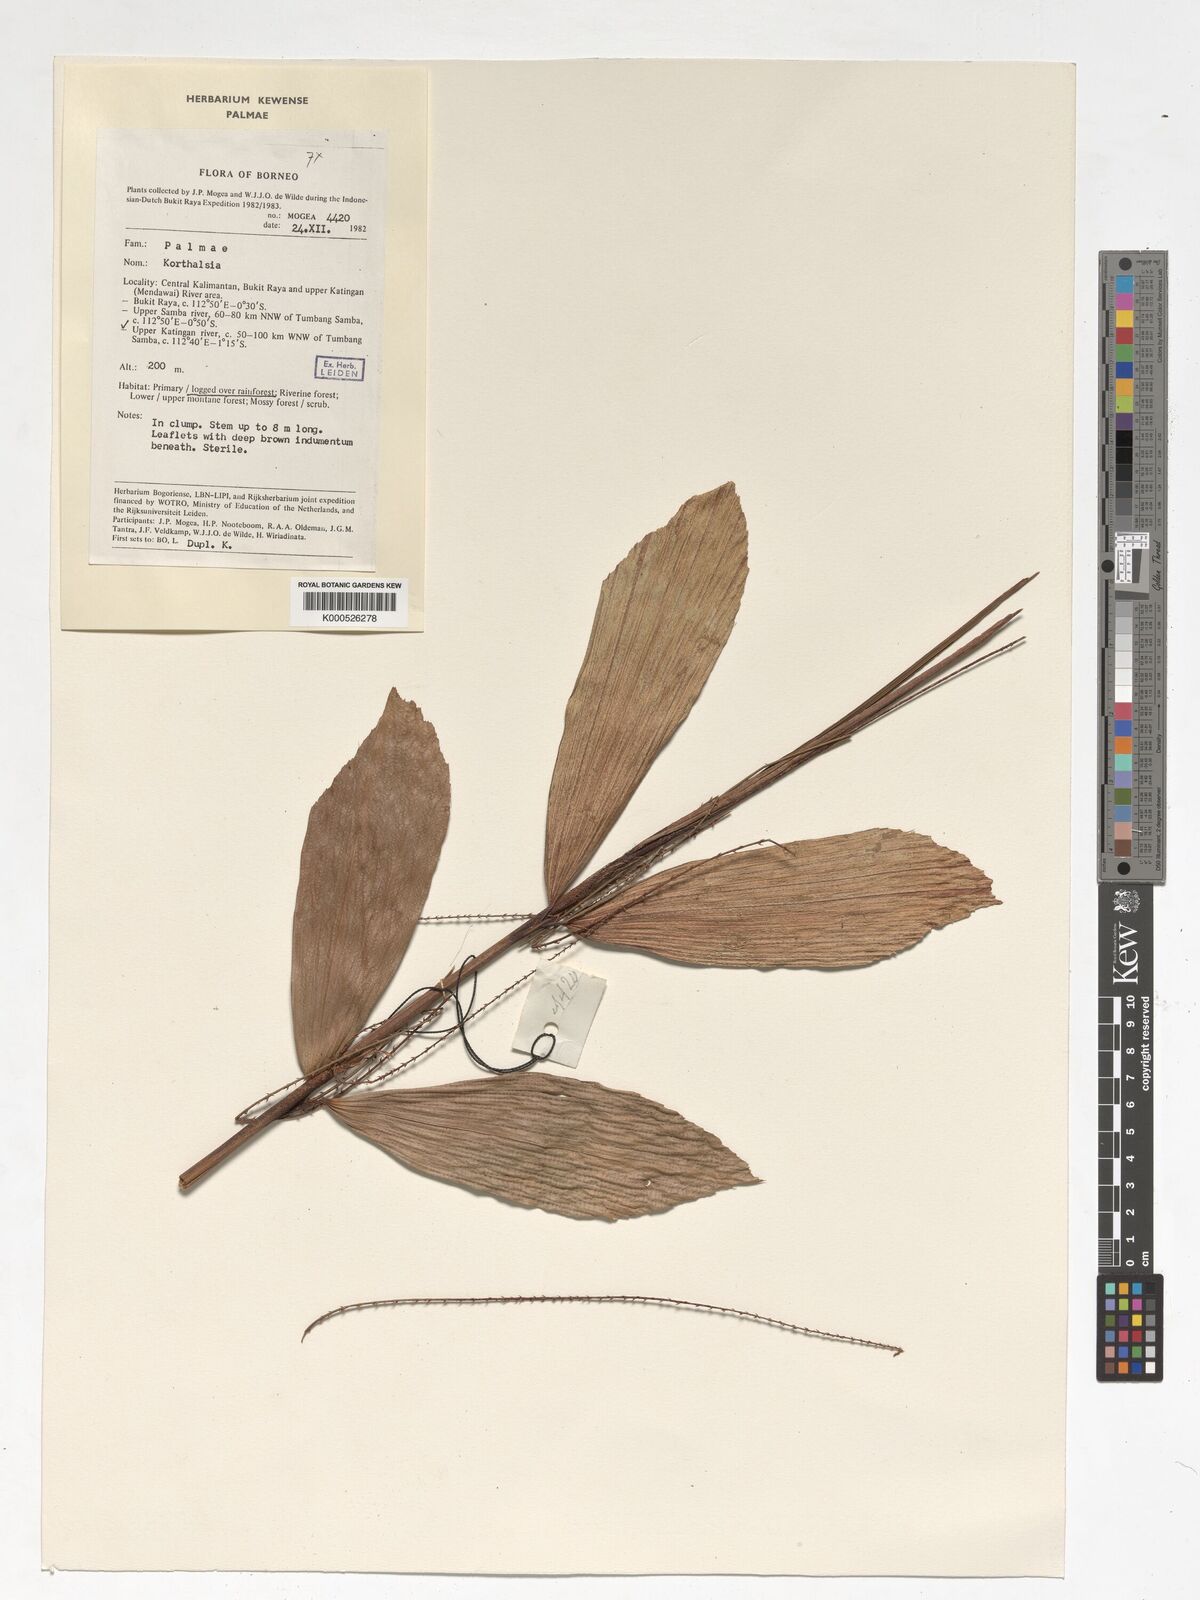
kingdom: Plantae
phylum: Tracheophyta
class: Liliopsida
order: Arecales
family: Arecaceae
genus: Korthalsia
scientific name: Korthalsia
